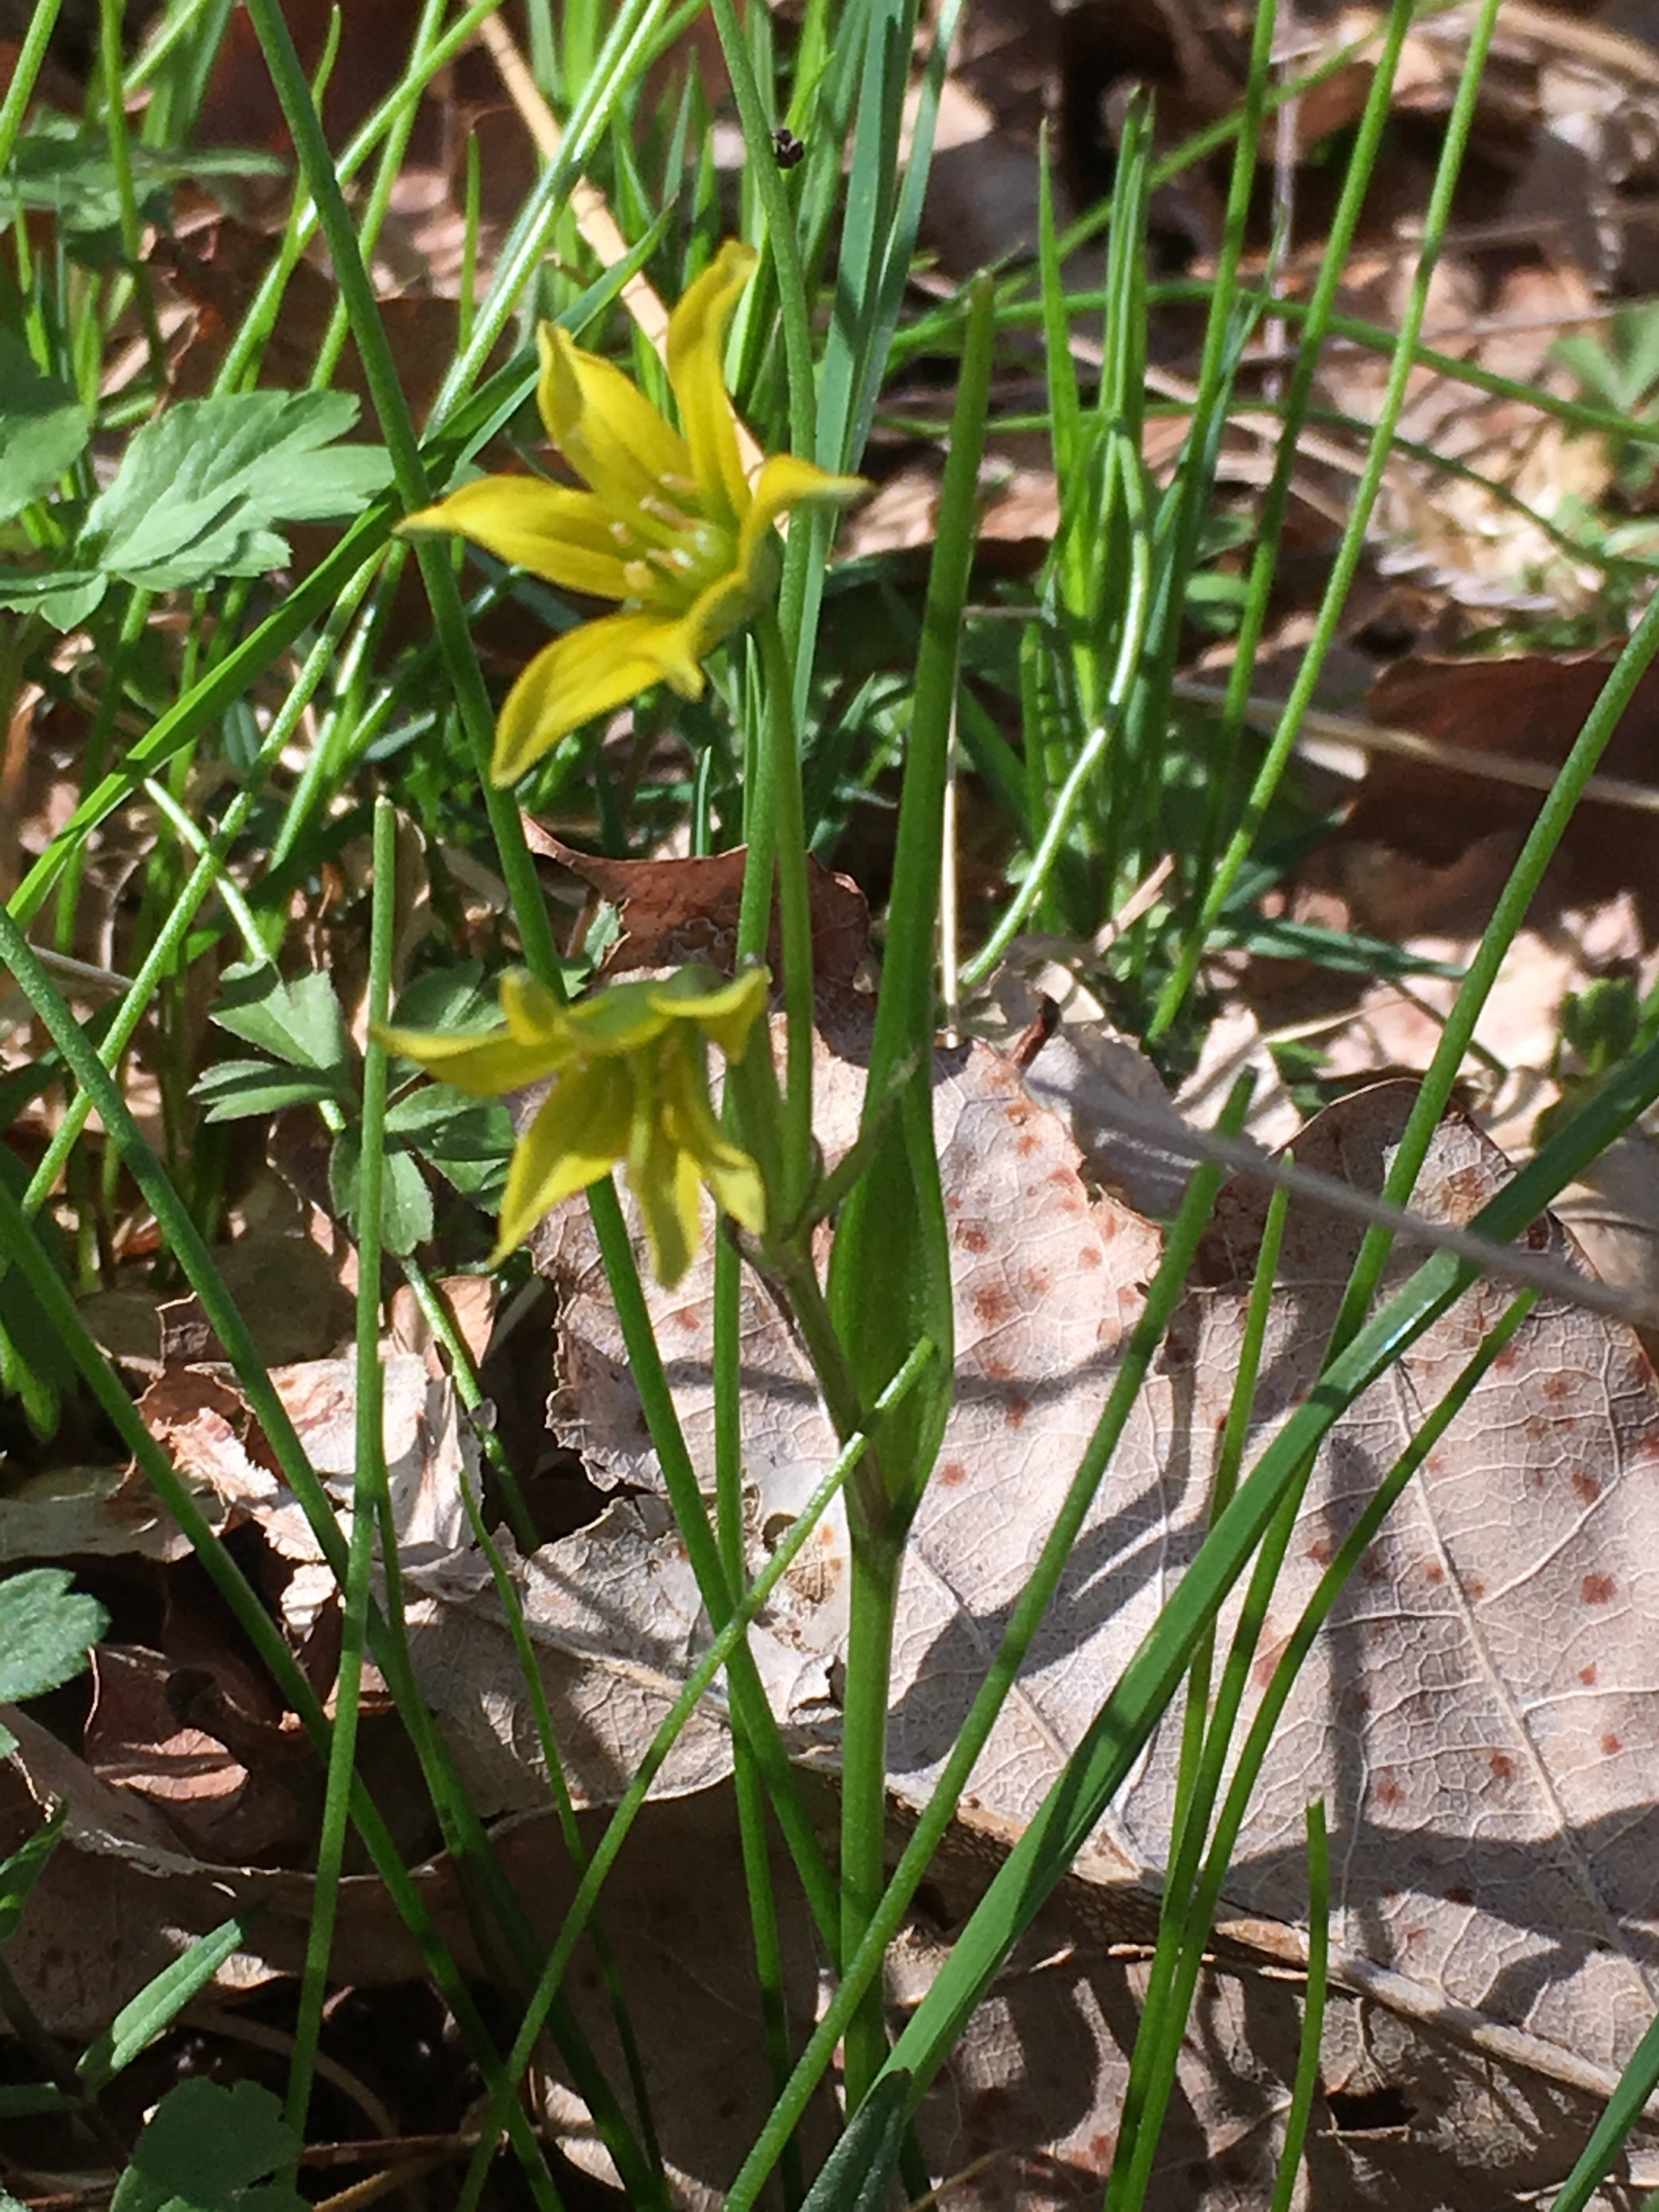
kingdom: Plantae
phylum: Tracheophyta
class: Liliopsida
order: Liliales
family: Liliaceae
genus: Gagea
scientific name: Gagea spathacea
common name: Hylster-guldstjerne
